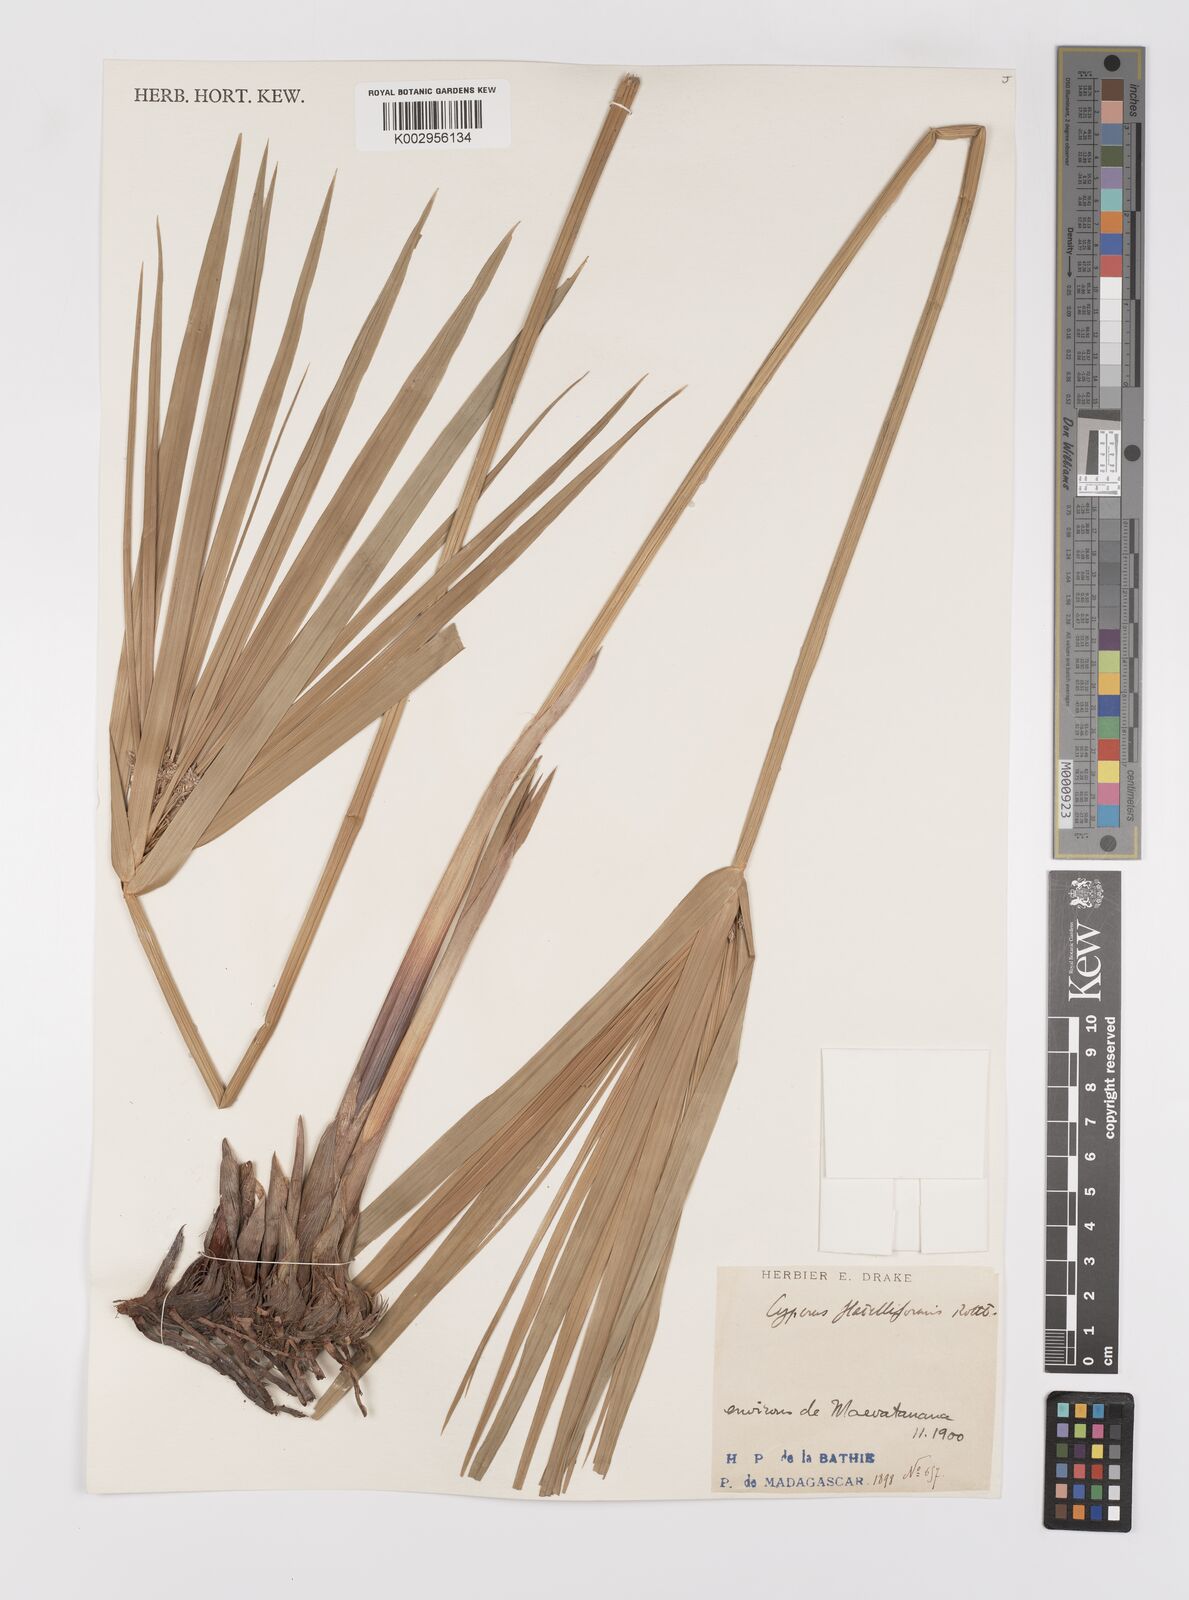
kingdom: Plantae
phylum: Tracheophyta
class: Liliopsida
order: Poales
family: Cyperaceae
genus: Cyperus
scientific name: Cyperus alternifolius
